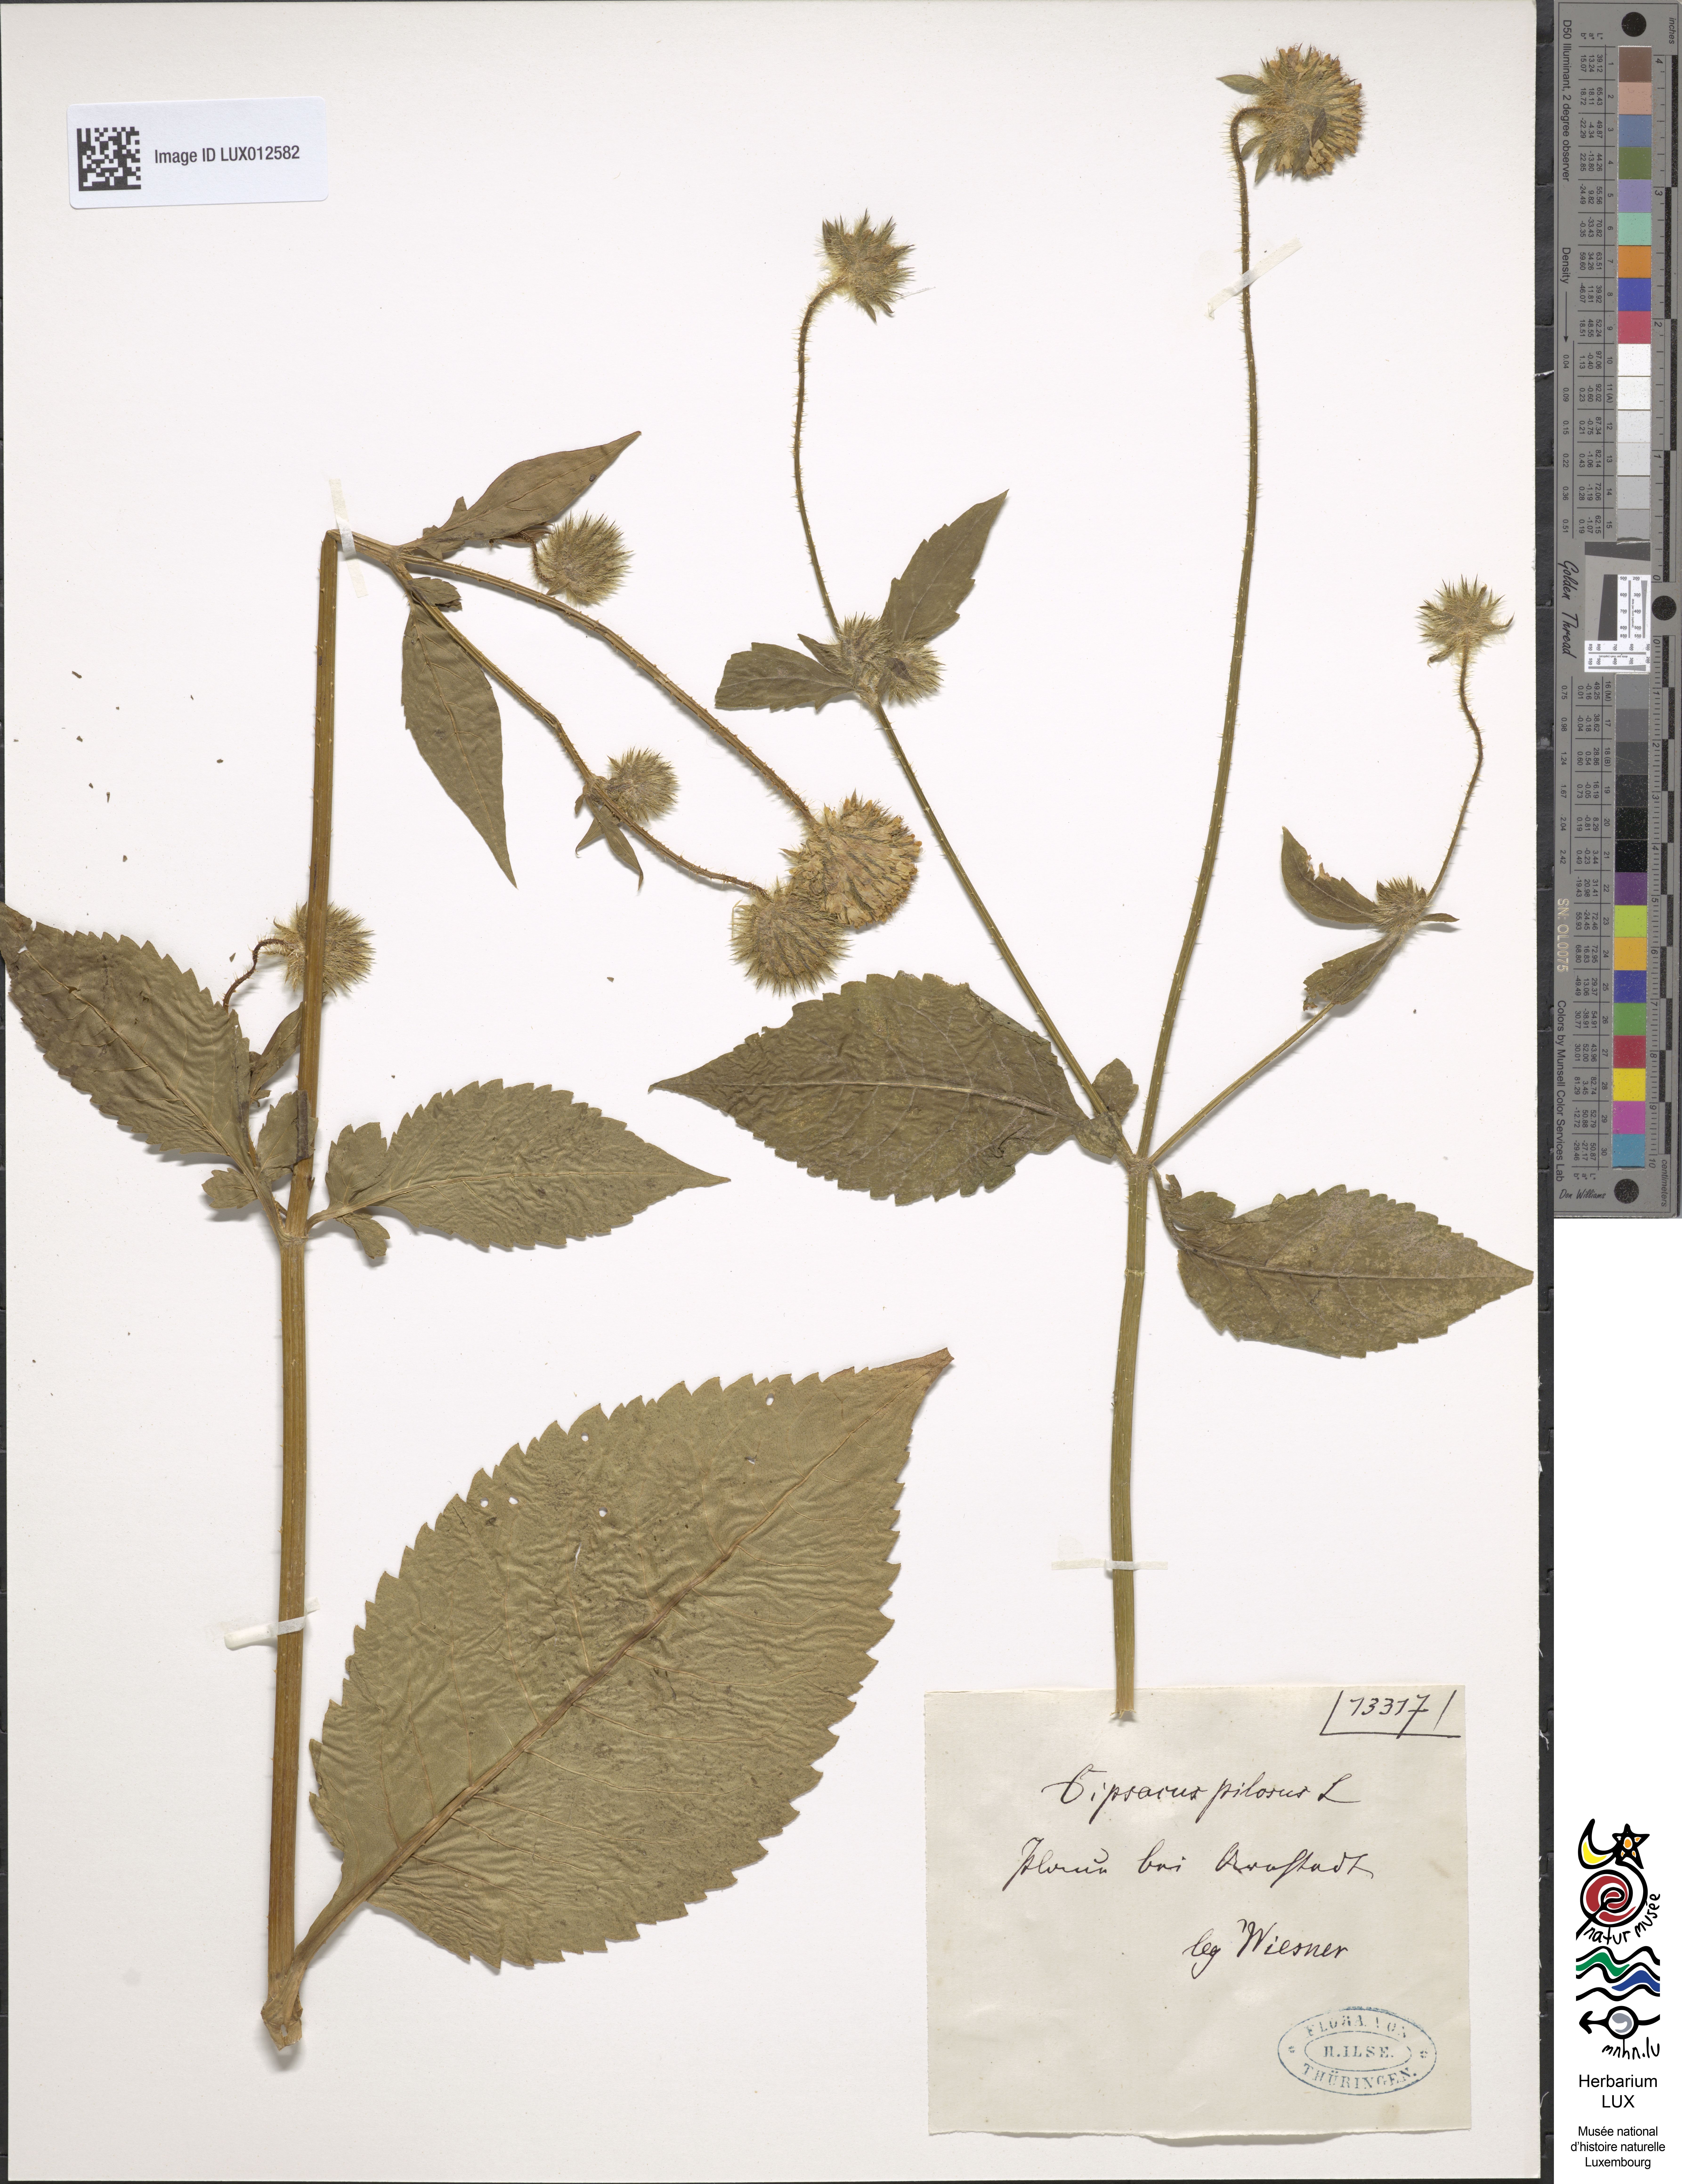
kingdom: Plantae
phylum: Tracheophyta
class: Magnoliopsida
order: Dipsacales
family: Caprifoliaceae
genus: Dipsacus
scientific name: Dipsacus pilosus
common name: Small teasel
